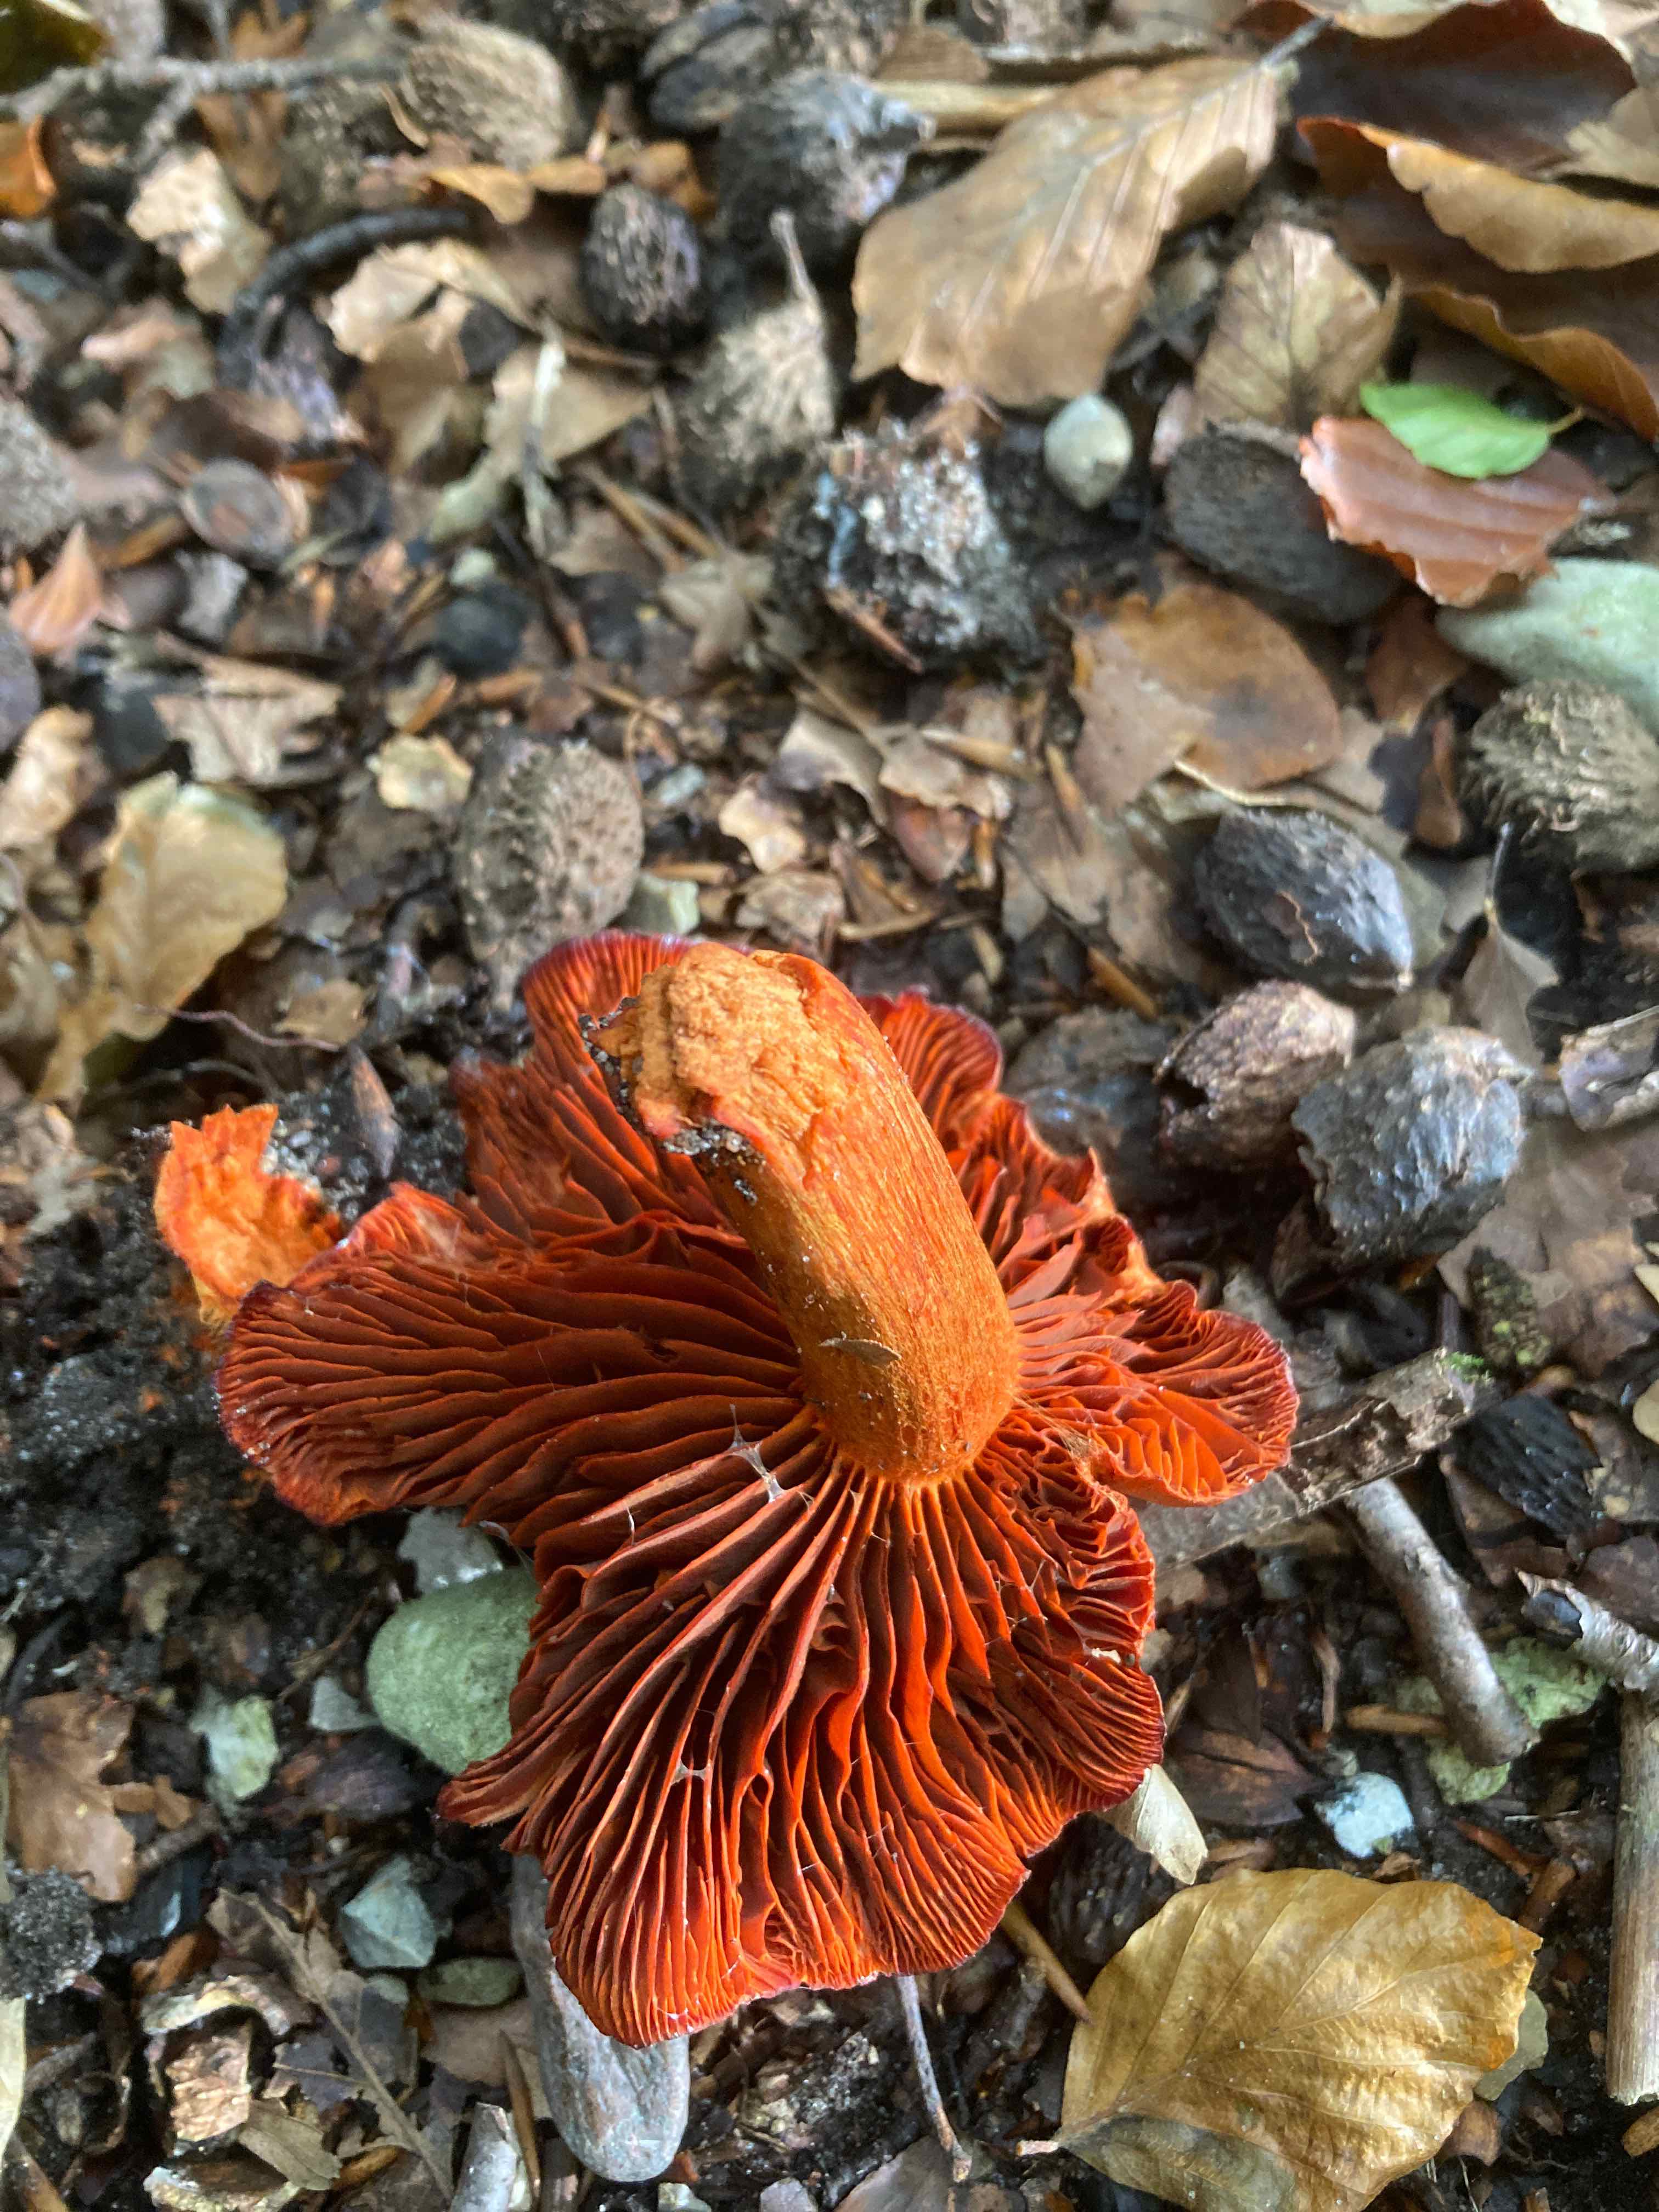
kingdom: Fungi
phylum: Basidiomycota
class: Agaricomycetes
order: Agaricales
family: Cortinariaceae
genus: Cortinarius
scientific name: Cortinarius cinnabarinus
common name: cinnober-slørhat
